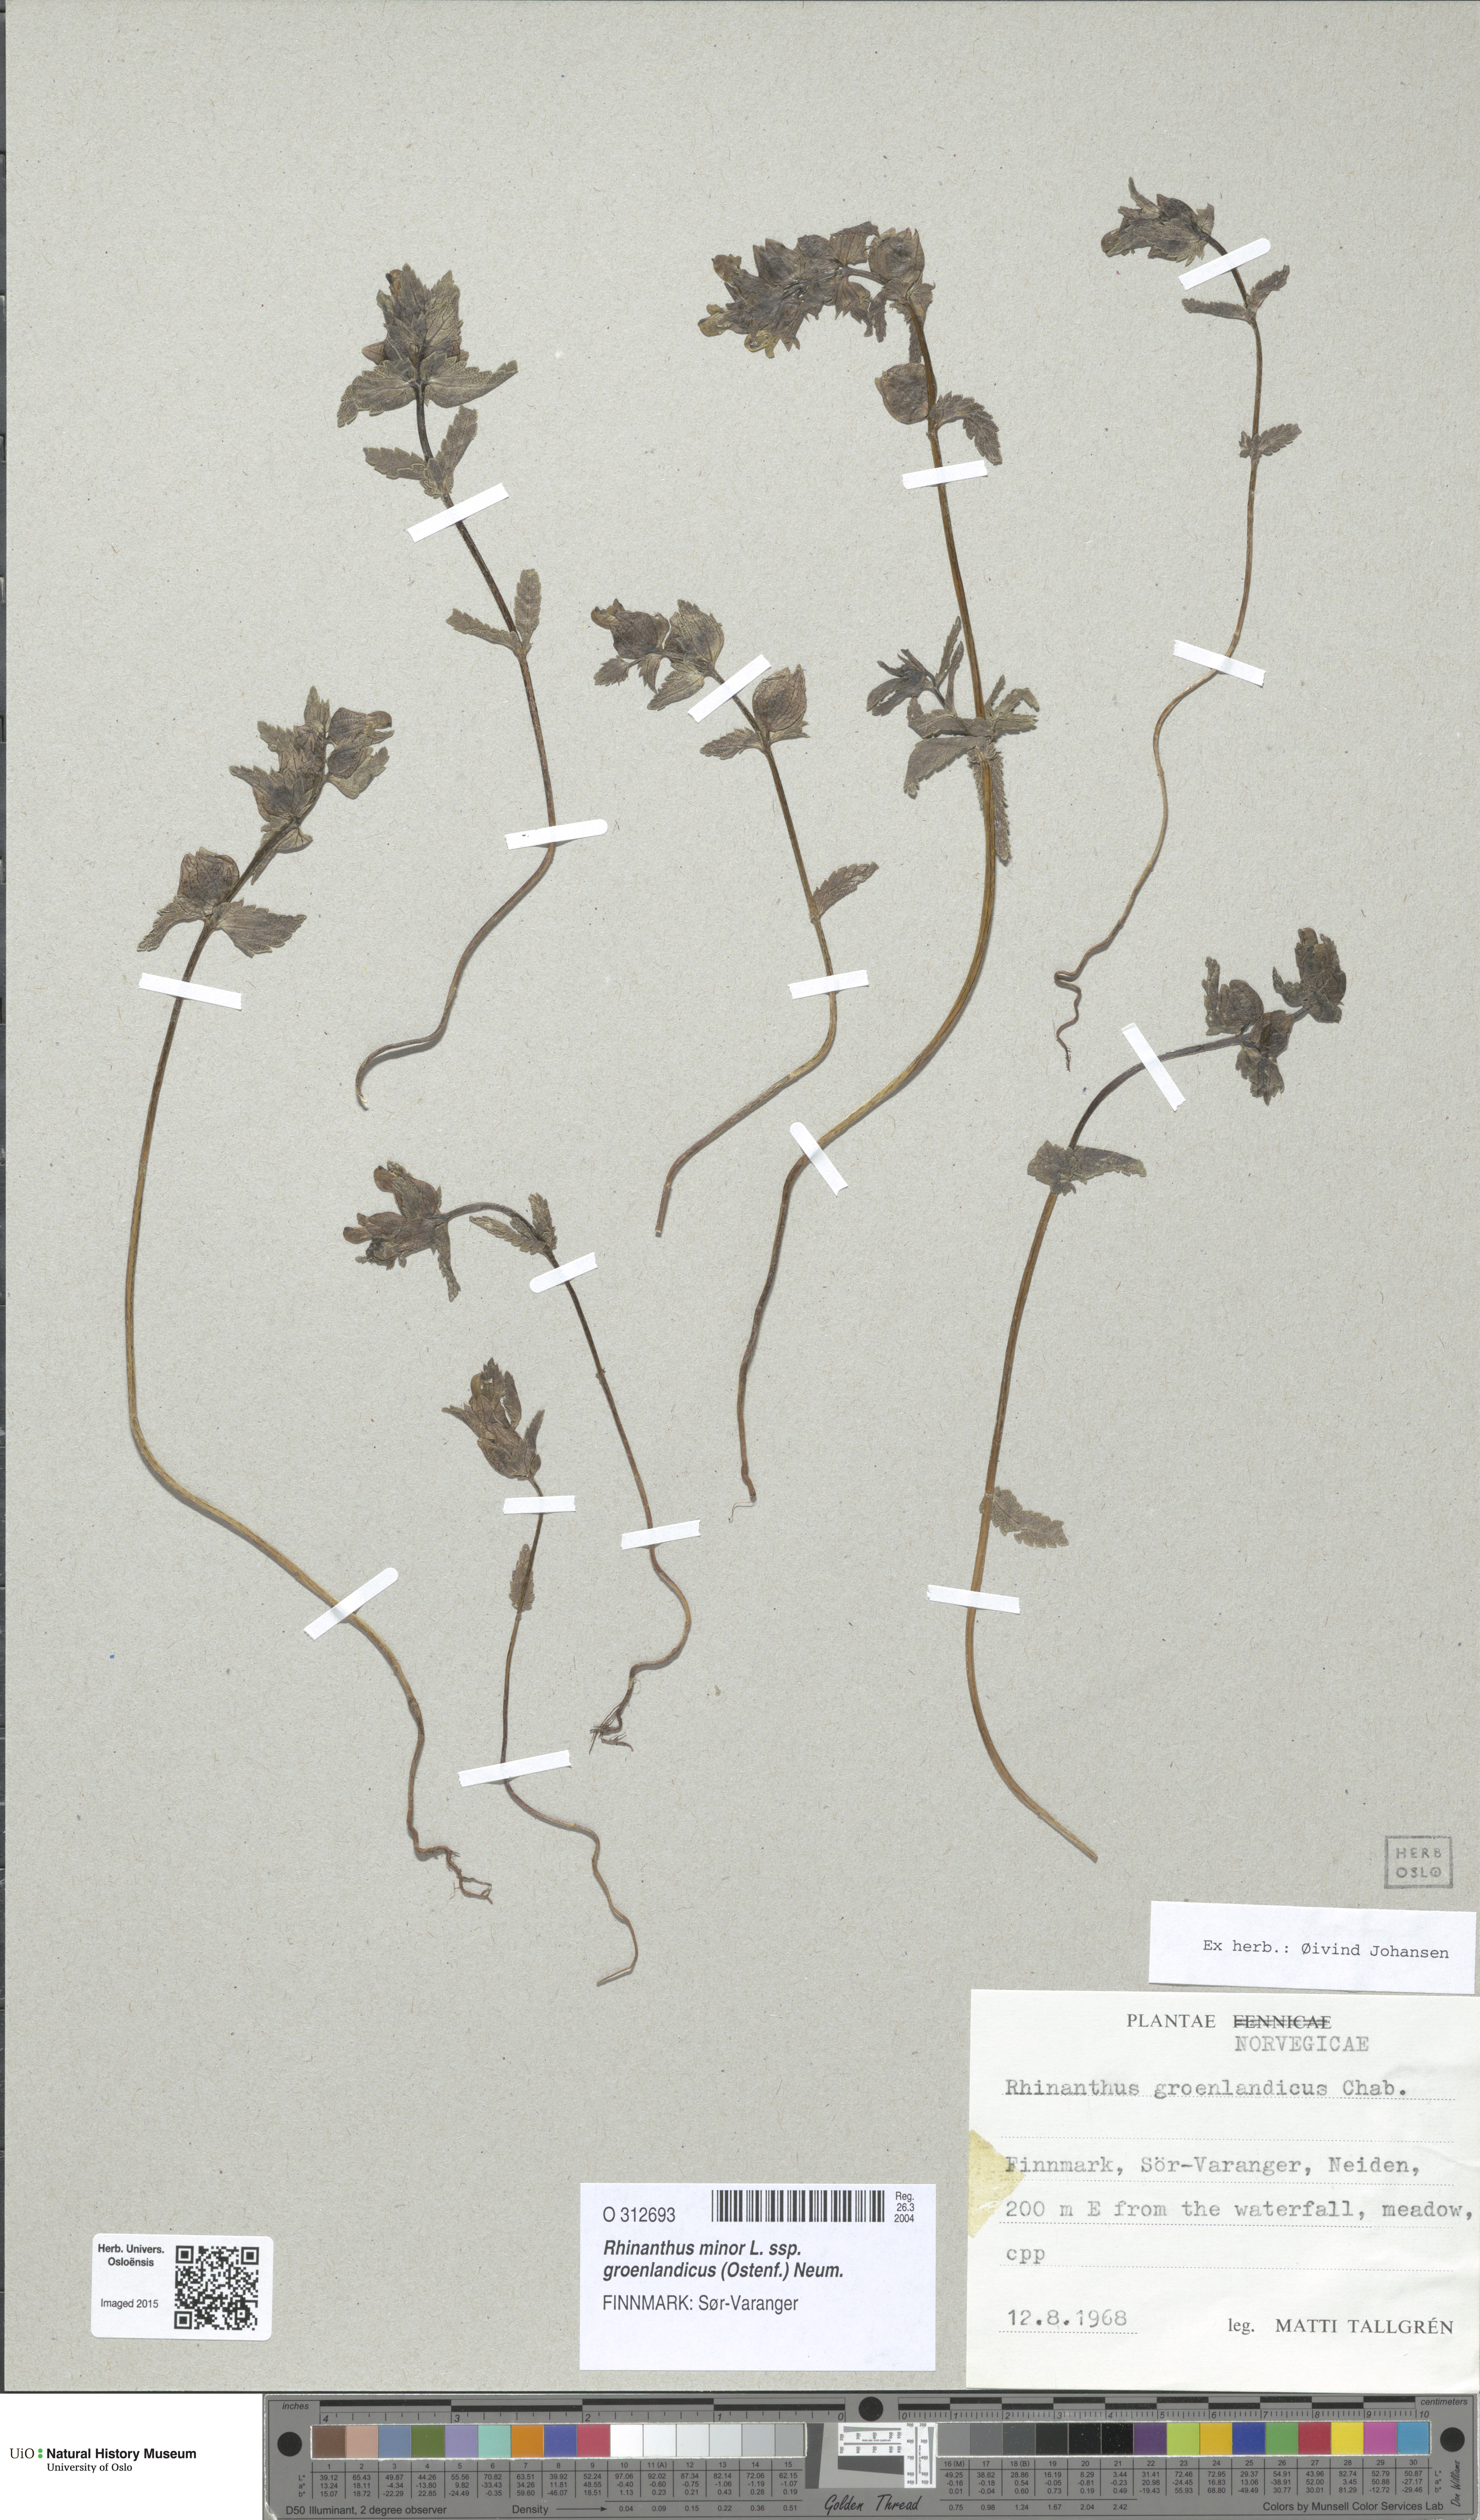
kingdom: Plantae
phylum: Tracheophyta
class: Magnoliopsida
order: Lamiales
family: Orobanchaceae
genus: Rhinanthus
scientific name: Rhinanthus groenlandicus
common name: Little yellow rattle
